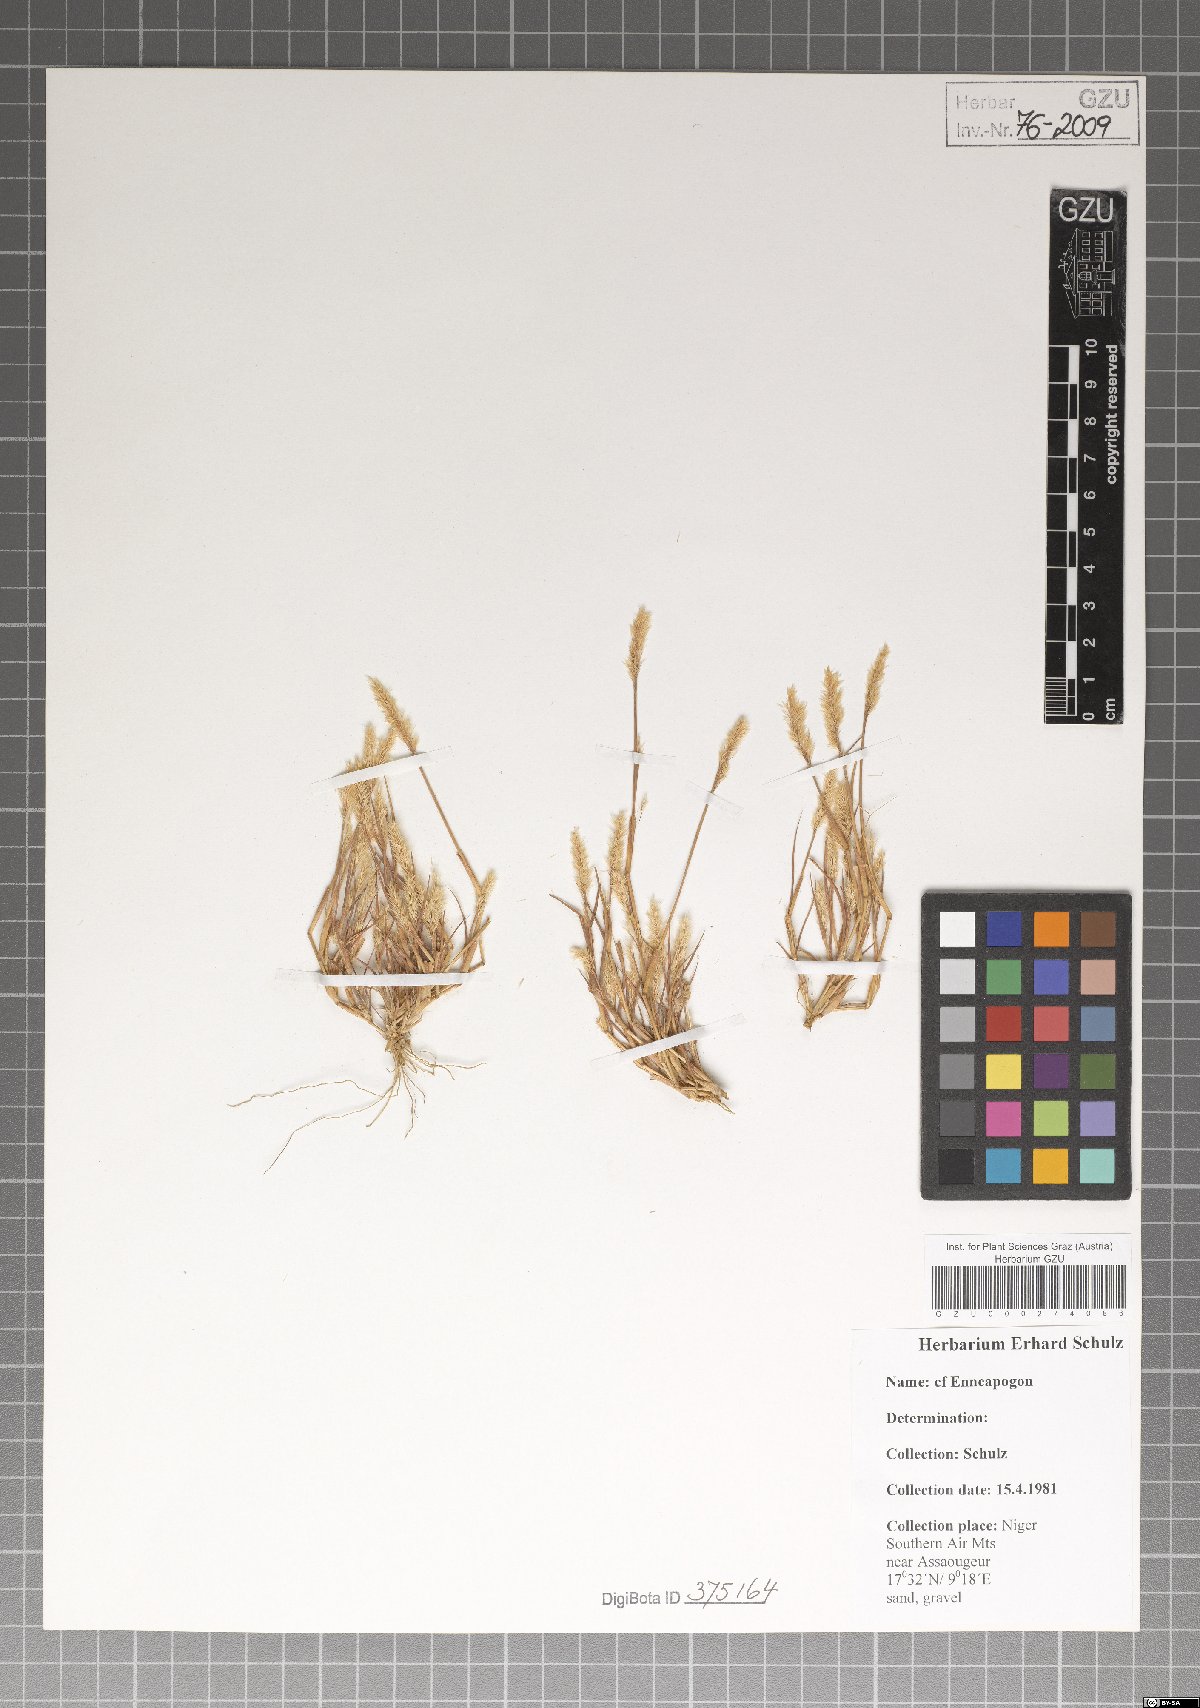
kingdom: Plantae
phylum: Tracheophyta
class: Liliopsida
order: Poales
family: Poaceae
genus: Enneapogon
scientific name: Enneapogon
